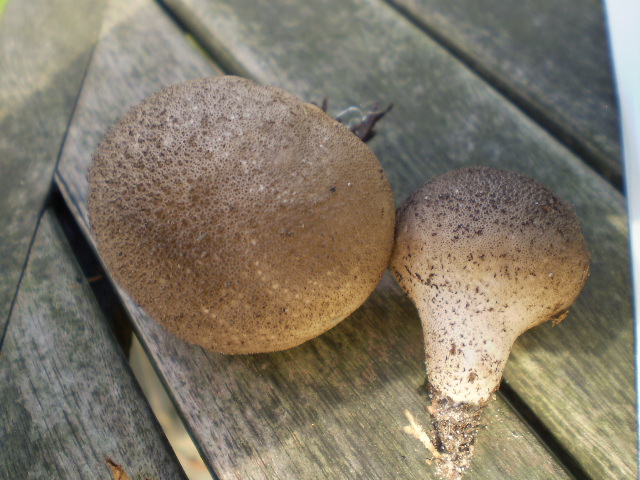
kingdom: Fungi
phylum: Basidiomycota
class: Agaricomycetes
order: Agaricales
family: Lycoperdaceae
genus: Lycoperdon
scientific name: Lycoperdon nigrescens
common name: sortagtig støvbold
